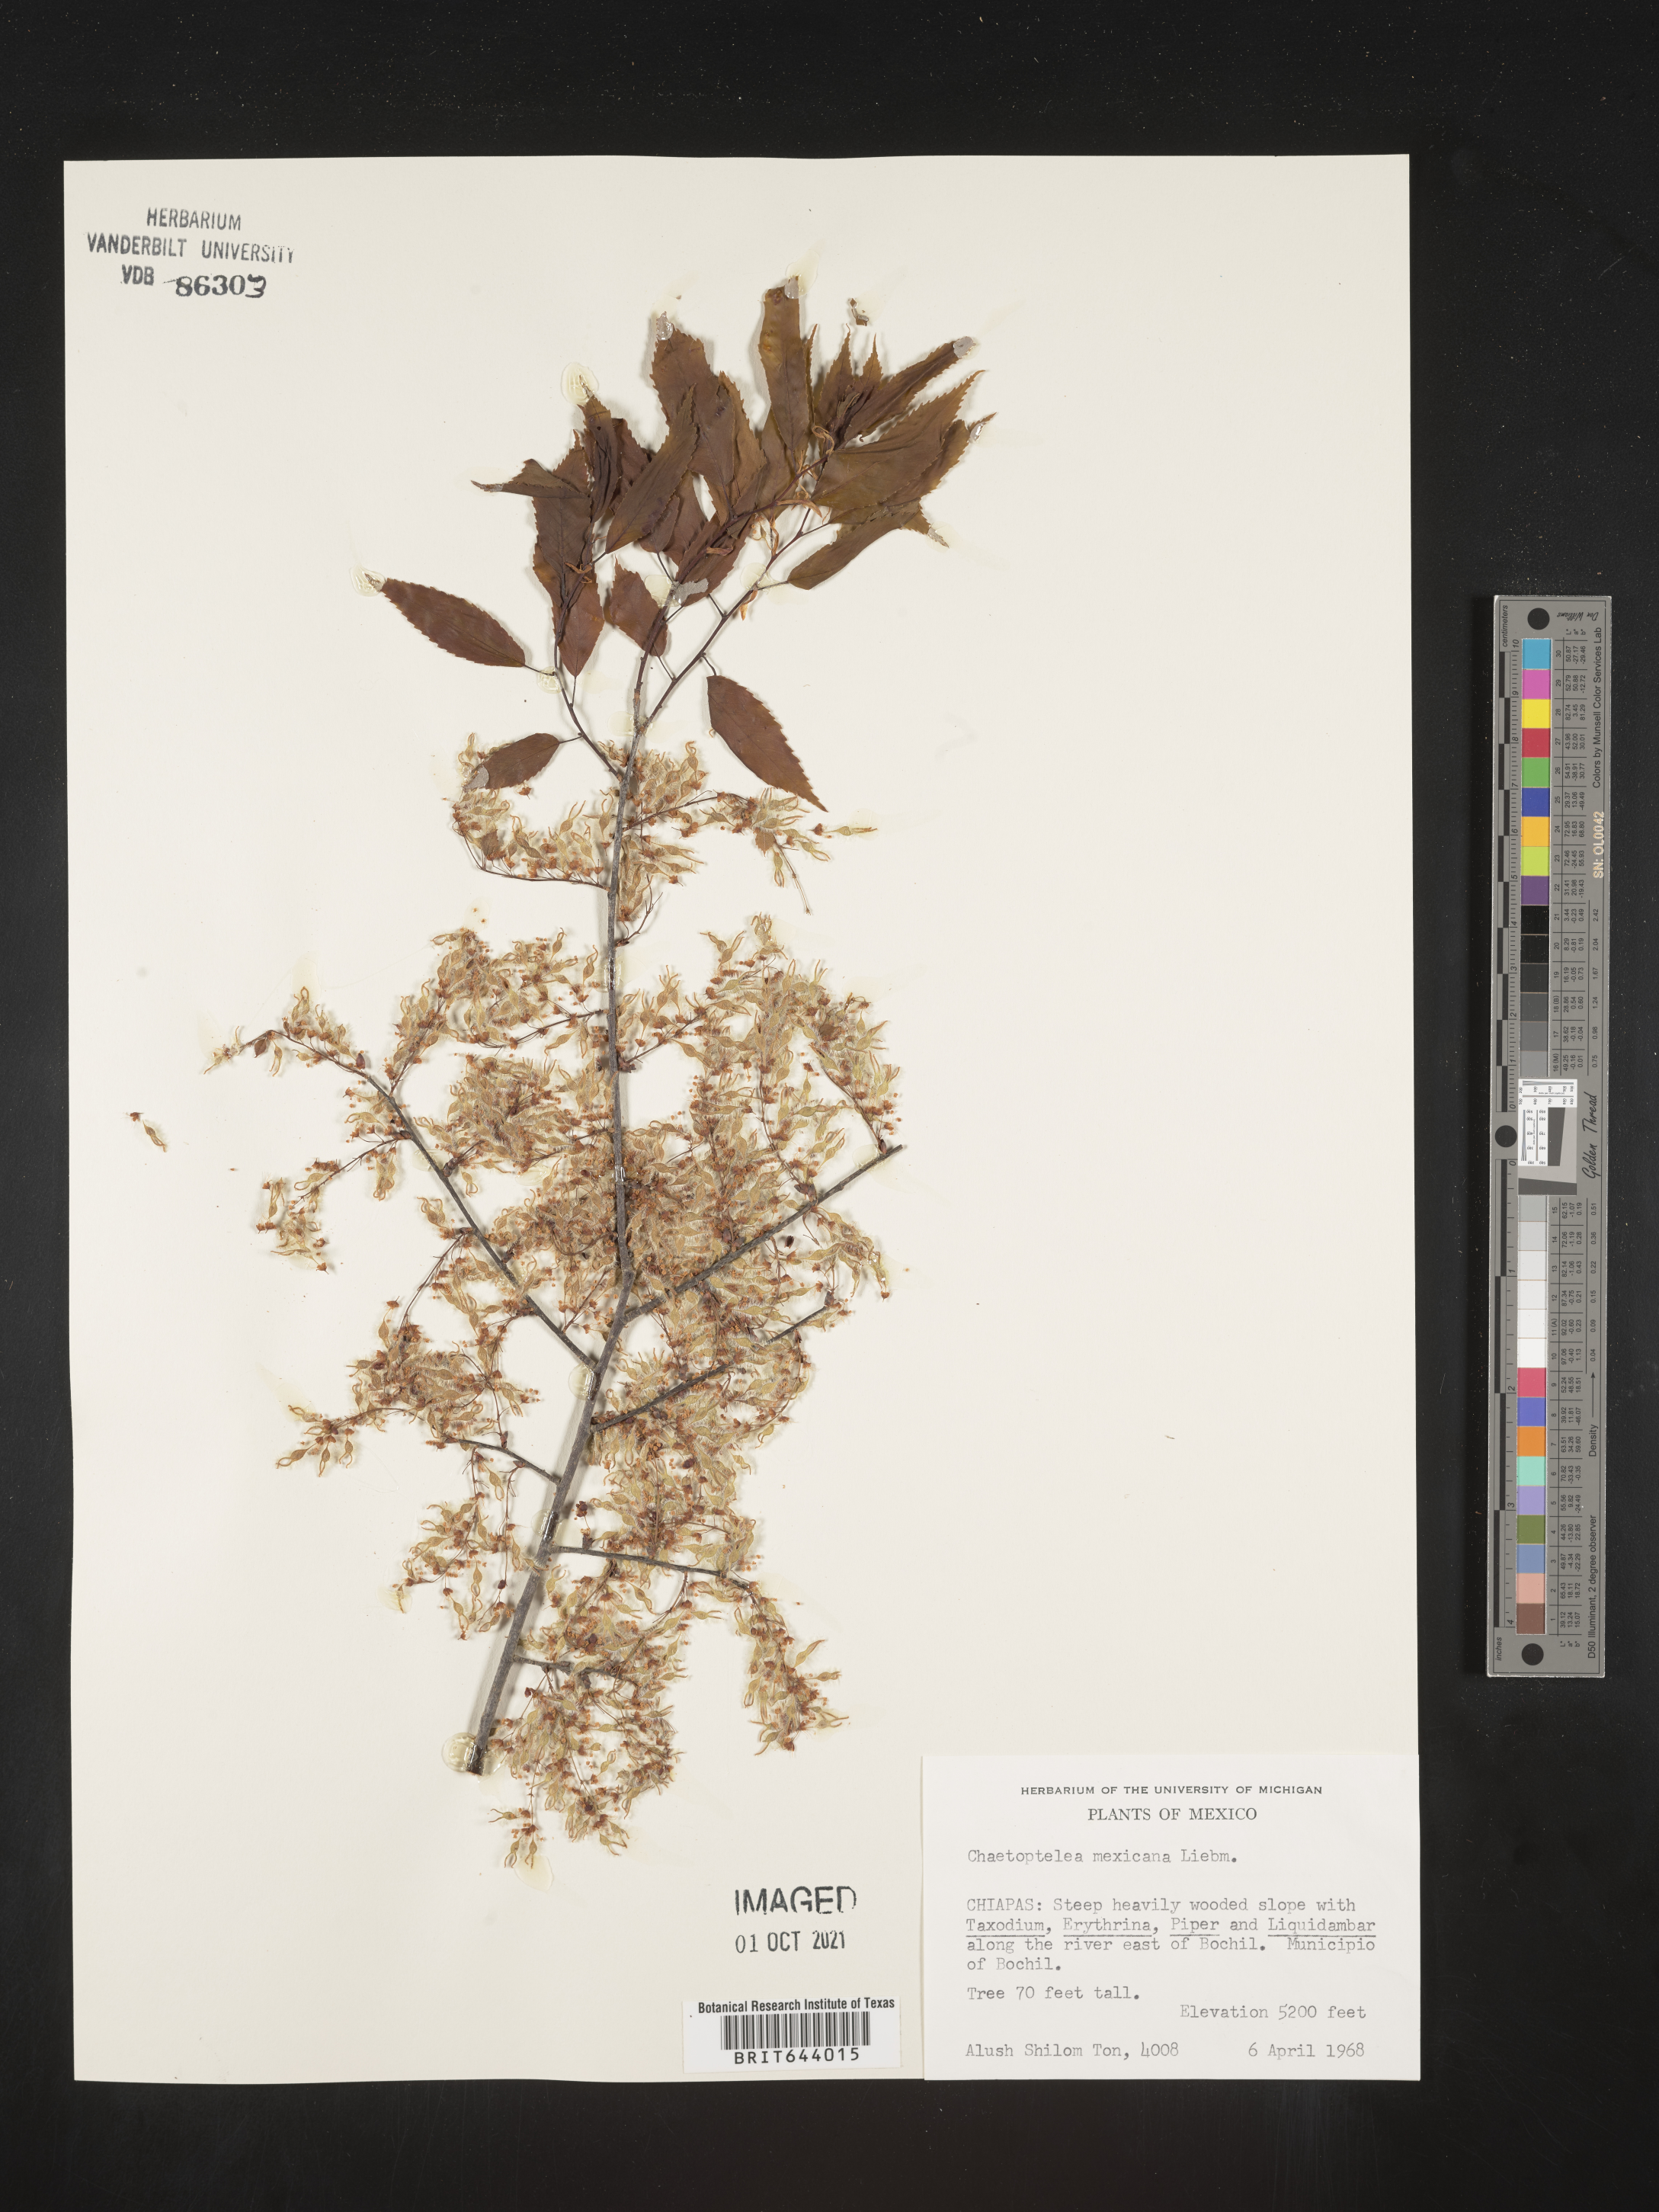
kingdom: Plantae
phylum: Tracheophyta
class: Magnoliopsida
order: Rosales
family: Ulmaceae
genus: Ulmus
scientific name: Ulmus
